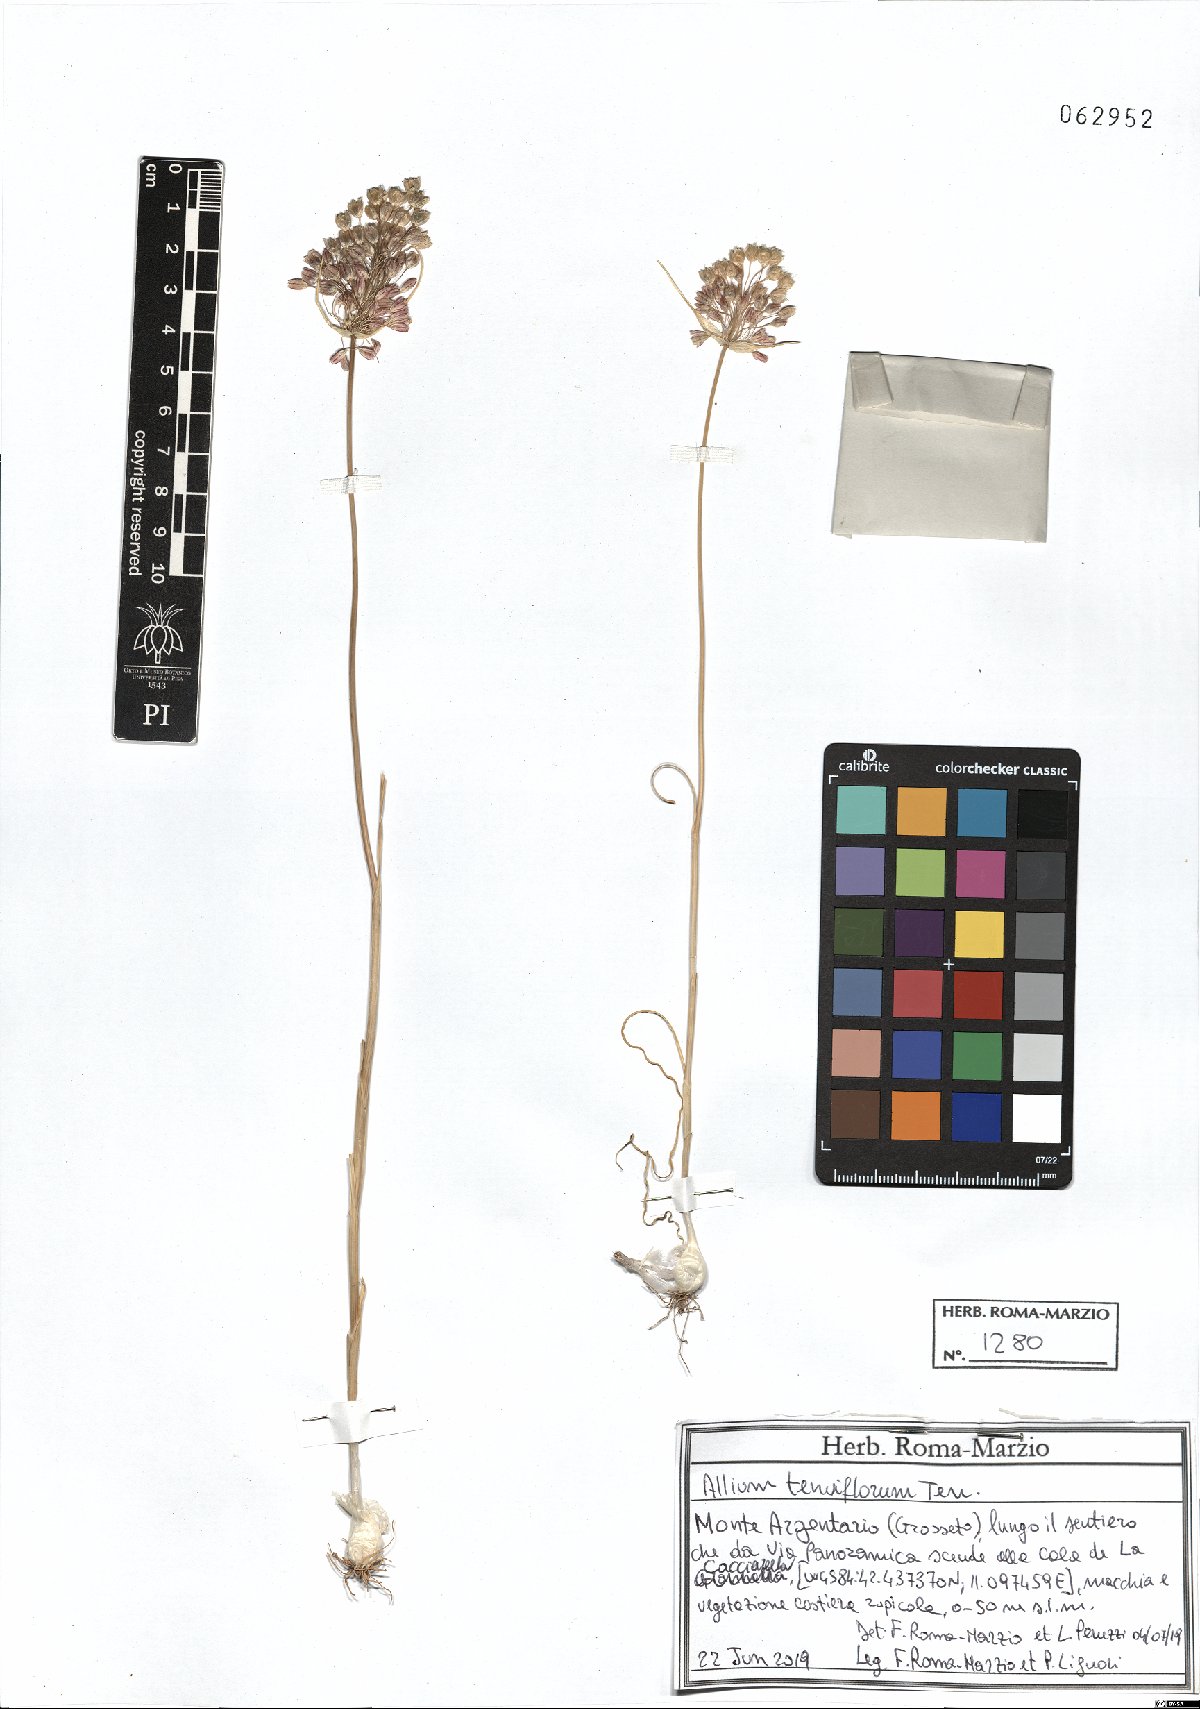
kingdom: Plantae
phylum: Tracheophyta
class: Liliopsida
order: Asparagales
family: Amaryllidaceae
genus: Allium
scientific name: Allium tenuiflorum
